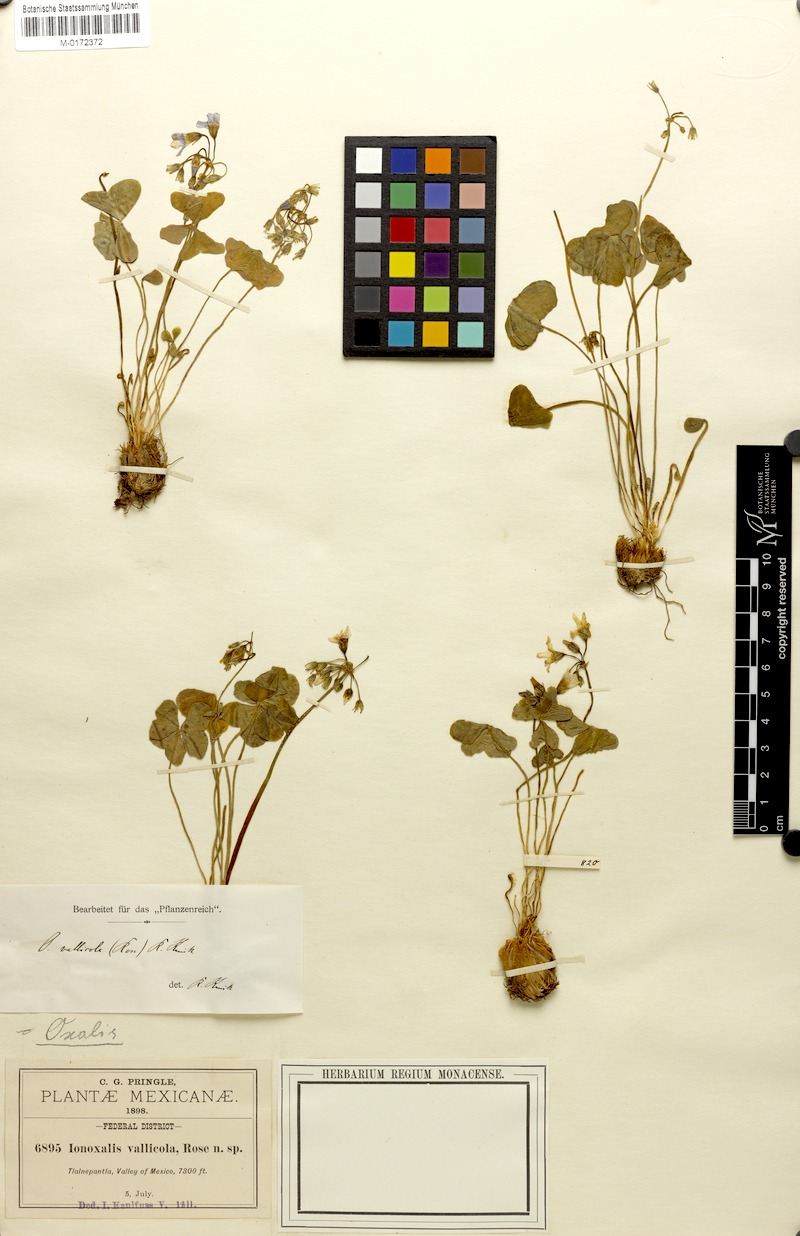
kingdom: Plantae
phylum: Tracheophyta
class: Magnoliopsida
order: Oxalidales
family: Oxalidaceae
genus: Oxalis
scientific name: Oxalis latifolia
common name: Garden pink-sorrel
